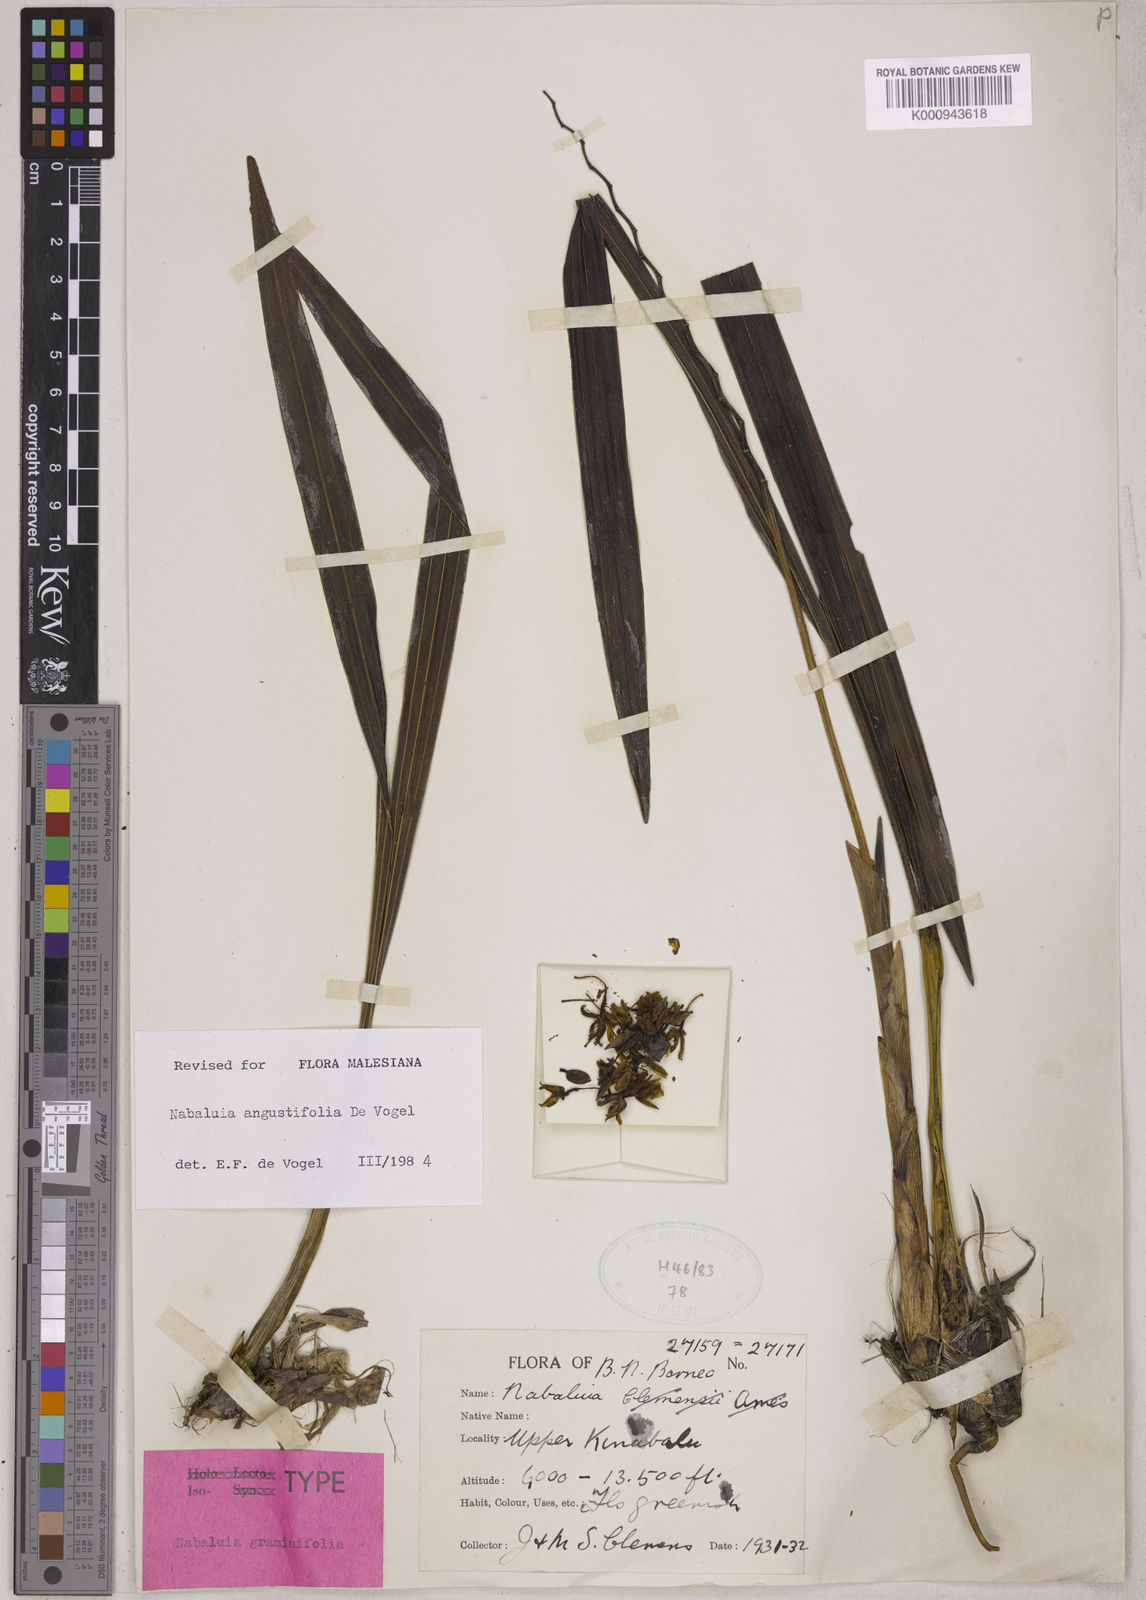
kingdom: Plantae
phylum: Tracheophyta
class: Liliopsida
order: Asparagales
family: Orchidaceae
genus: Coelogyne
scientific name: Coelogyne blumea
